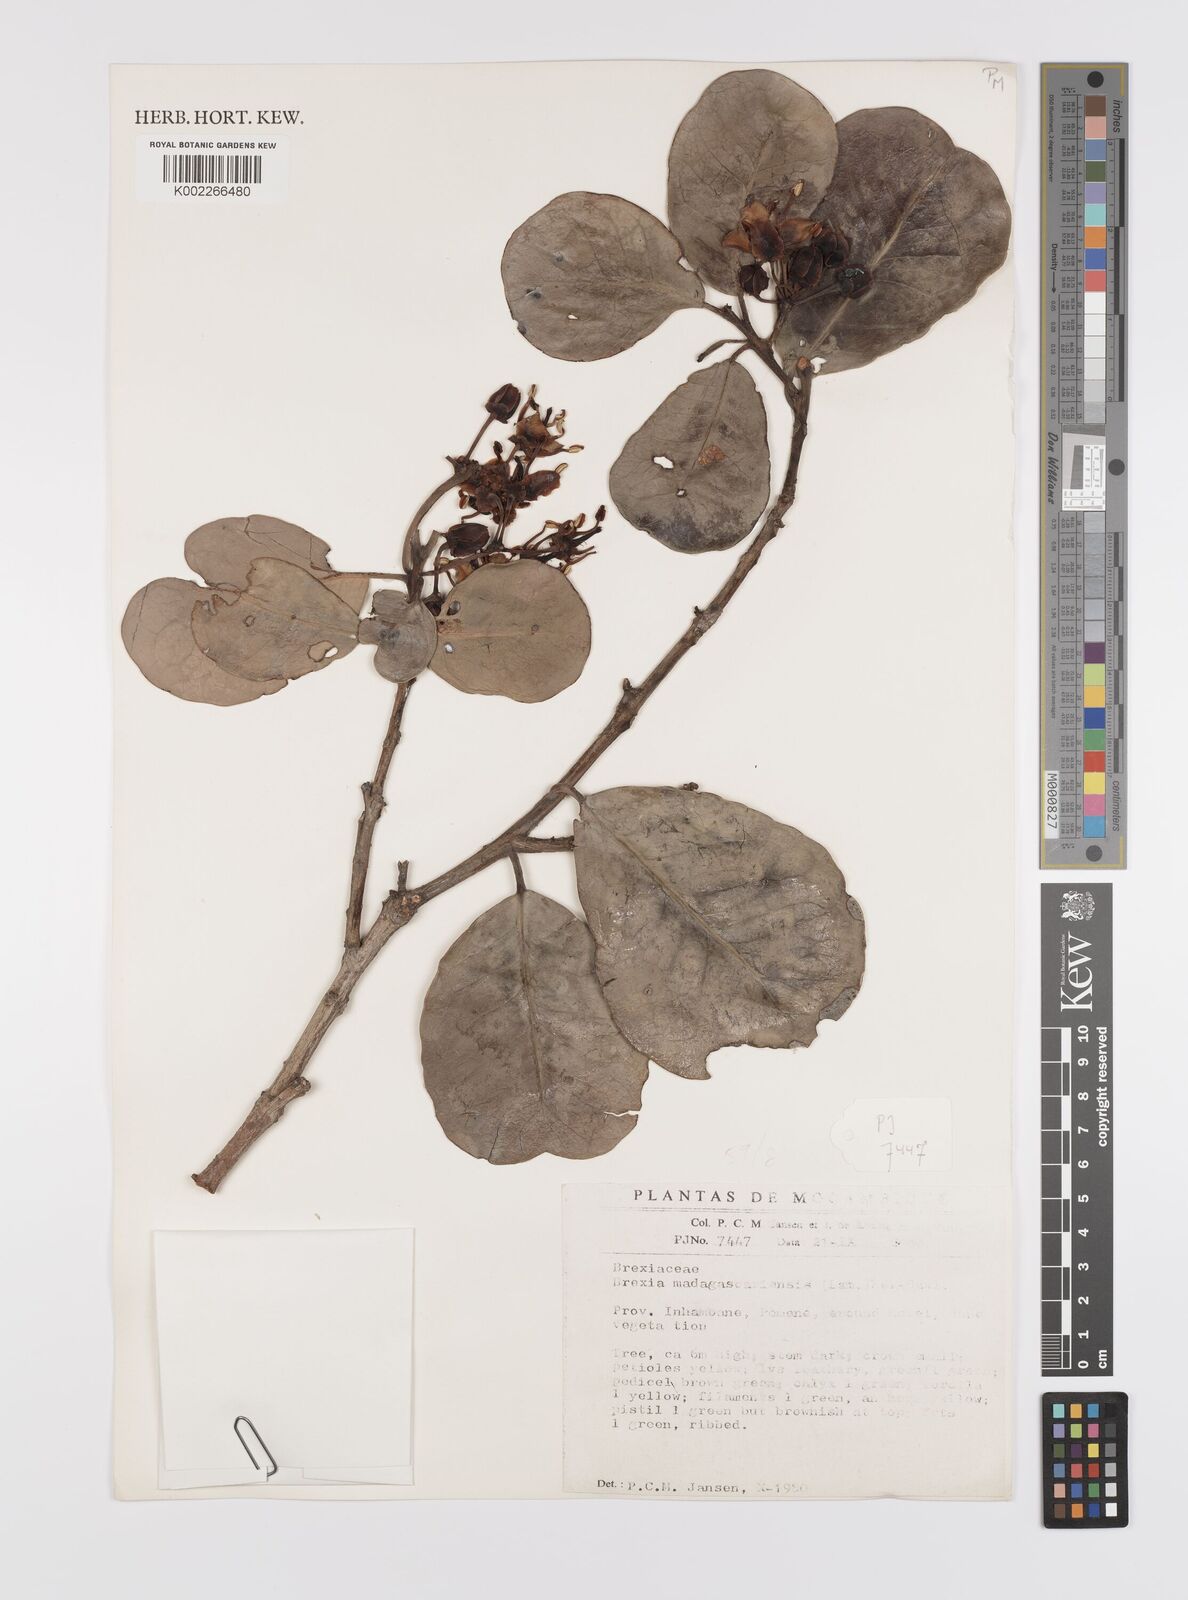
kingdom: Plantae
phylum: Tracheophyta
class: Magnoliopsida
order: Celastrales
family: Celastraceae
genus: Brexia
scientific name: Brexia madagascariensis
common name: Brexia
